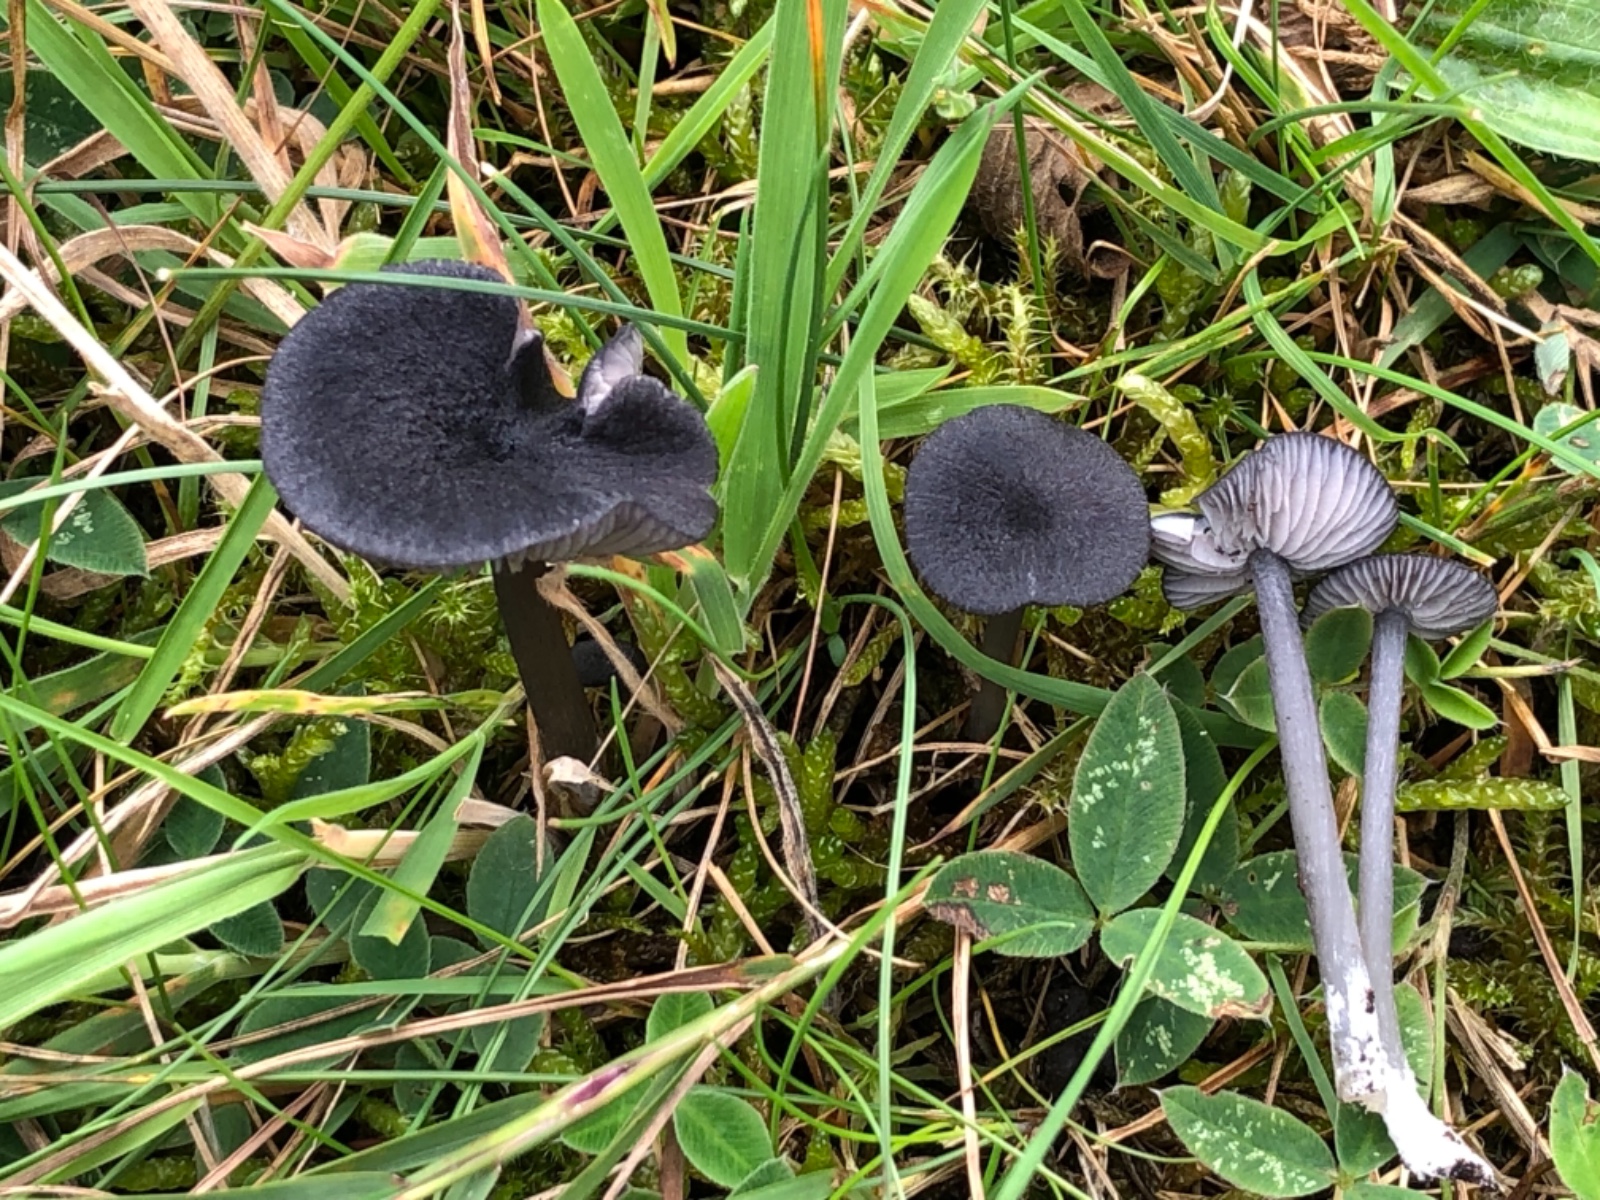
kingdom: Fungi
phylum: Basidiomycota
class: Agaricomycetes
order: Agaricales
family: Entolomataceae
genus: Entoloma
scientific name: Entoloma
